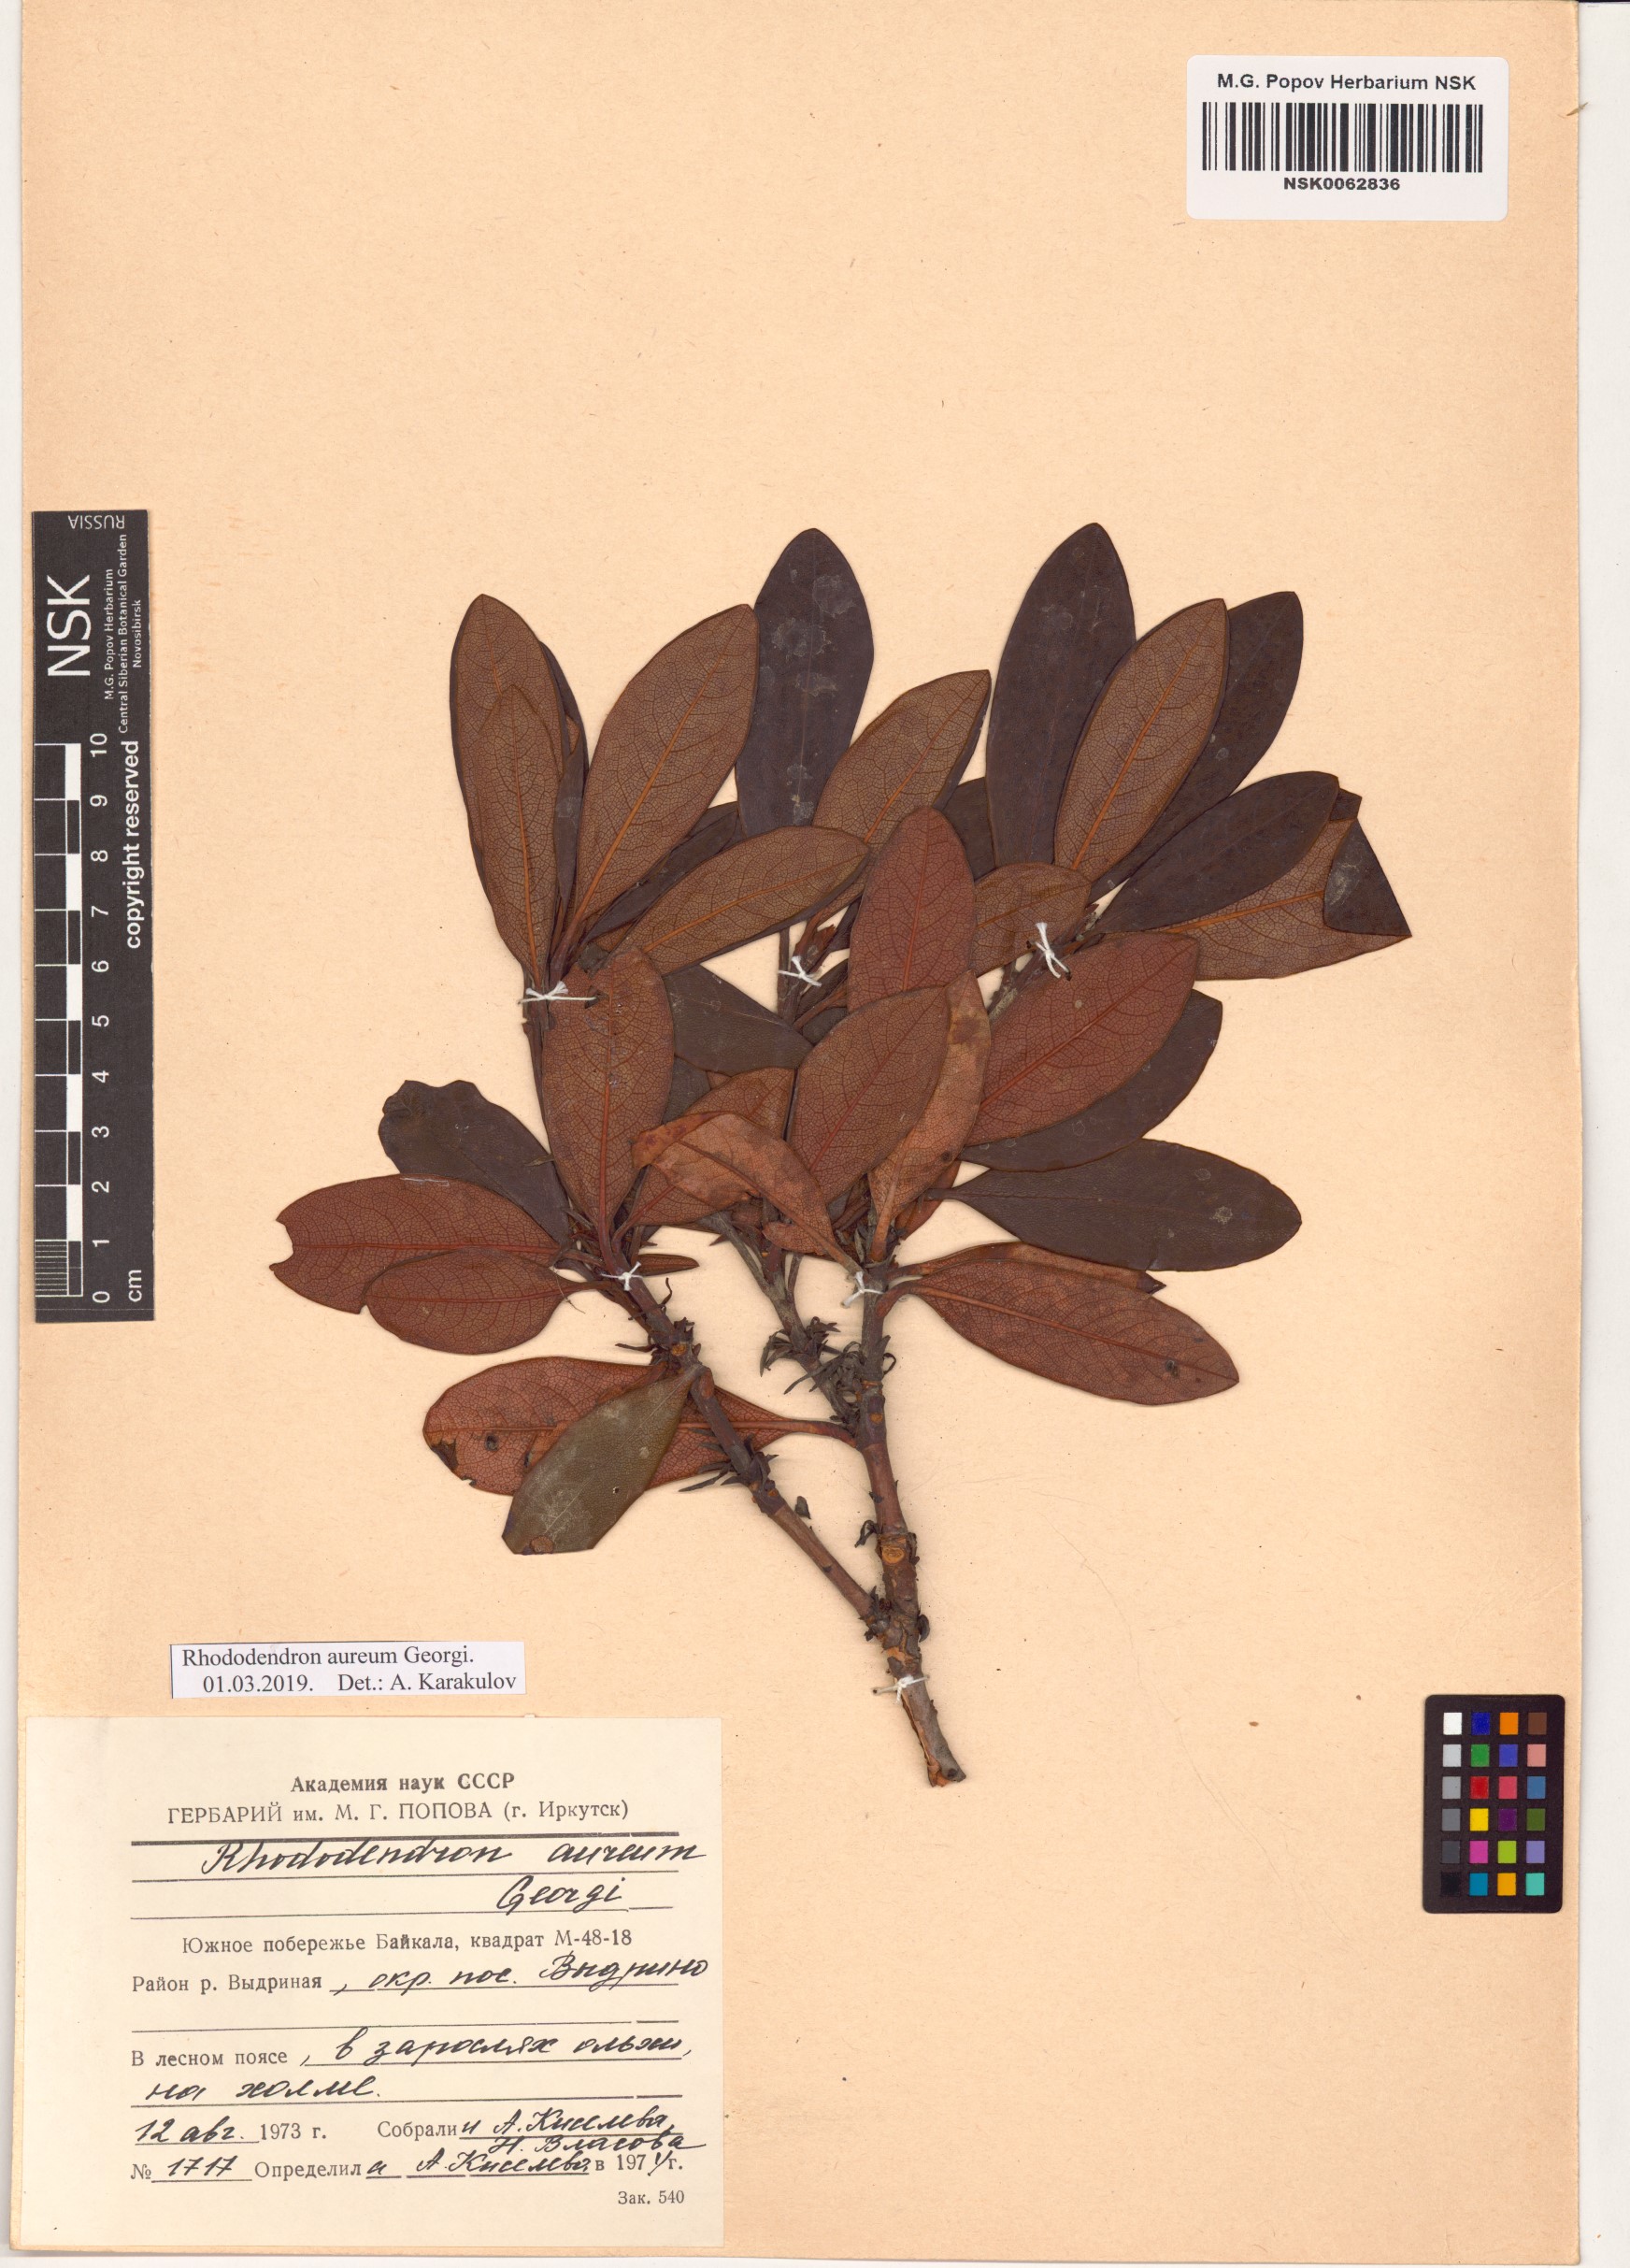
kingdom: Plantae
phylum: Tracheophyta
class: Magnoliopsida
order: Ericales
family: Ericaceae
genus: Rhododendron
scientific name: Rhododendron aureum
